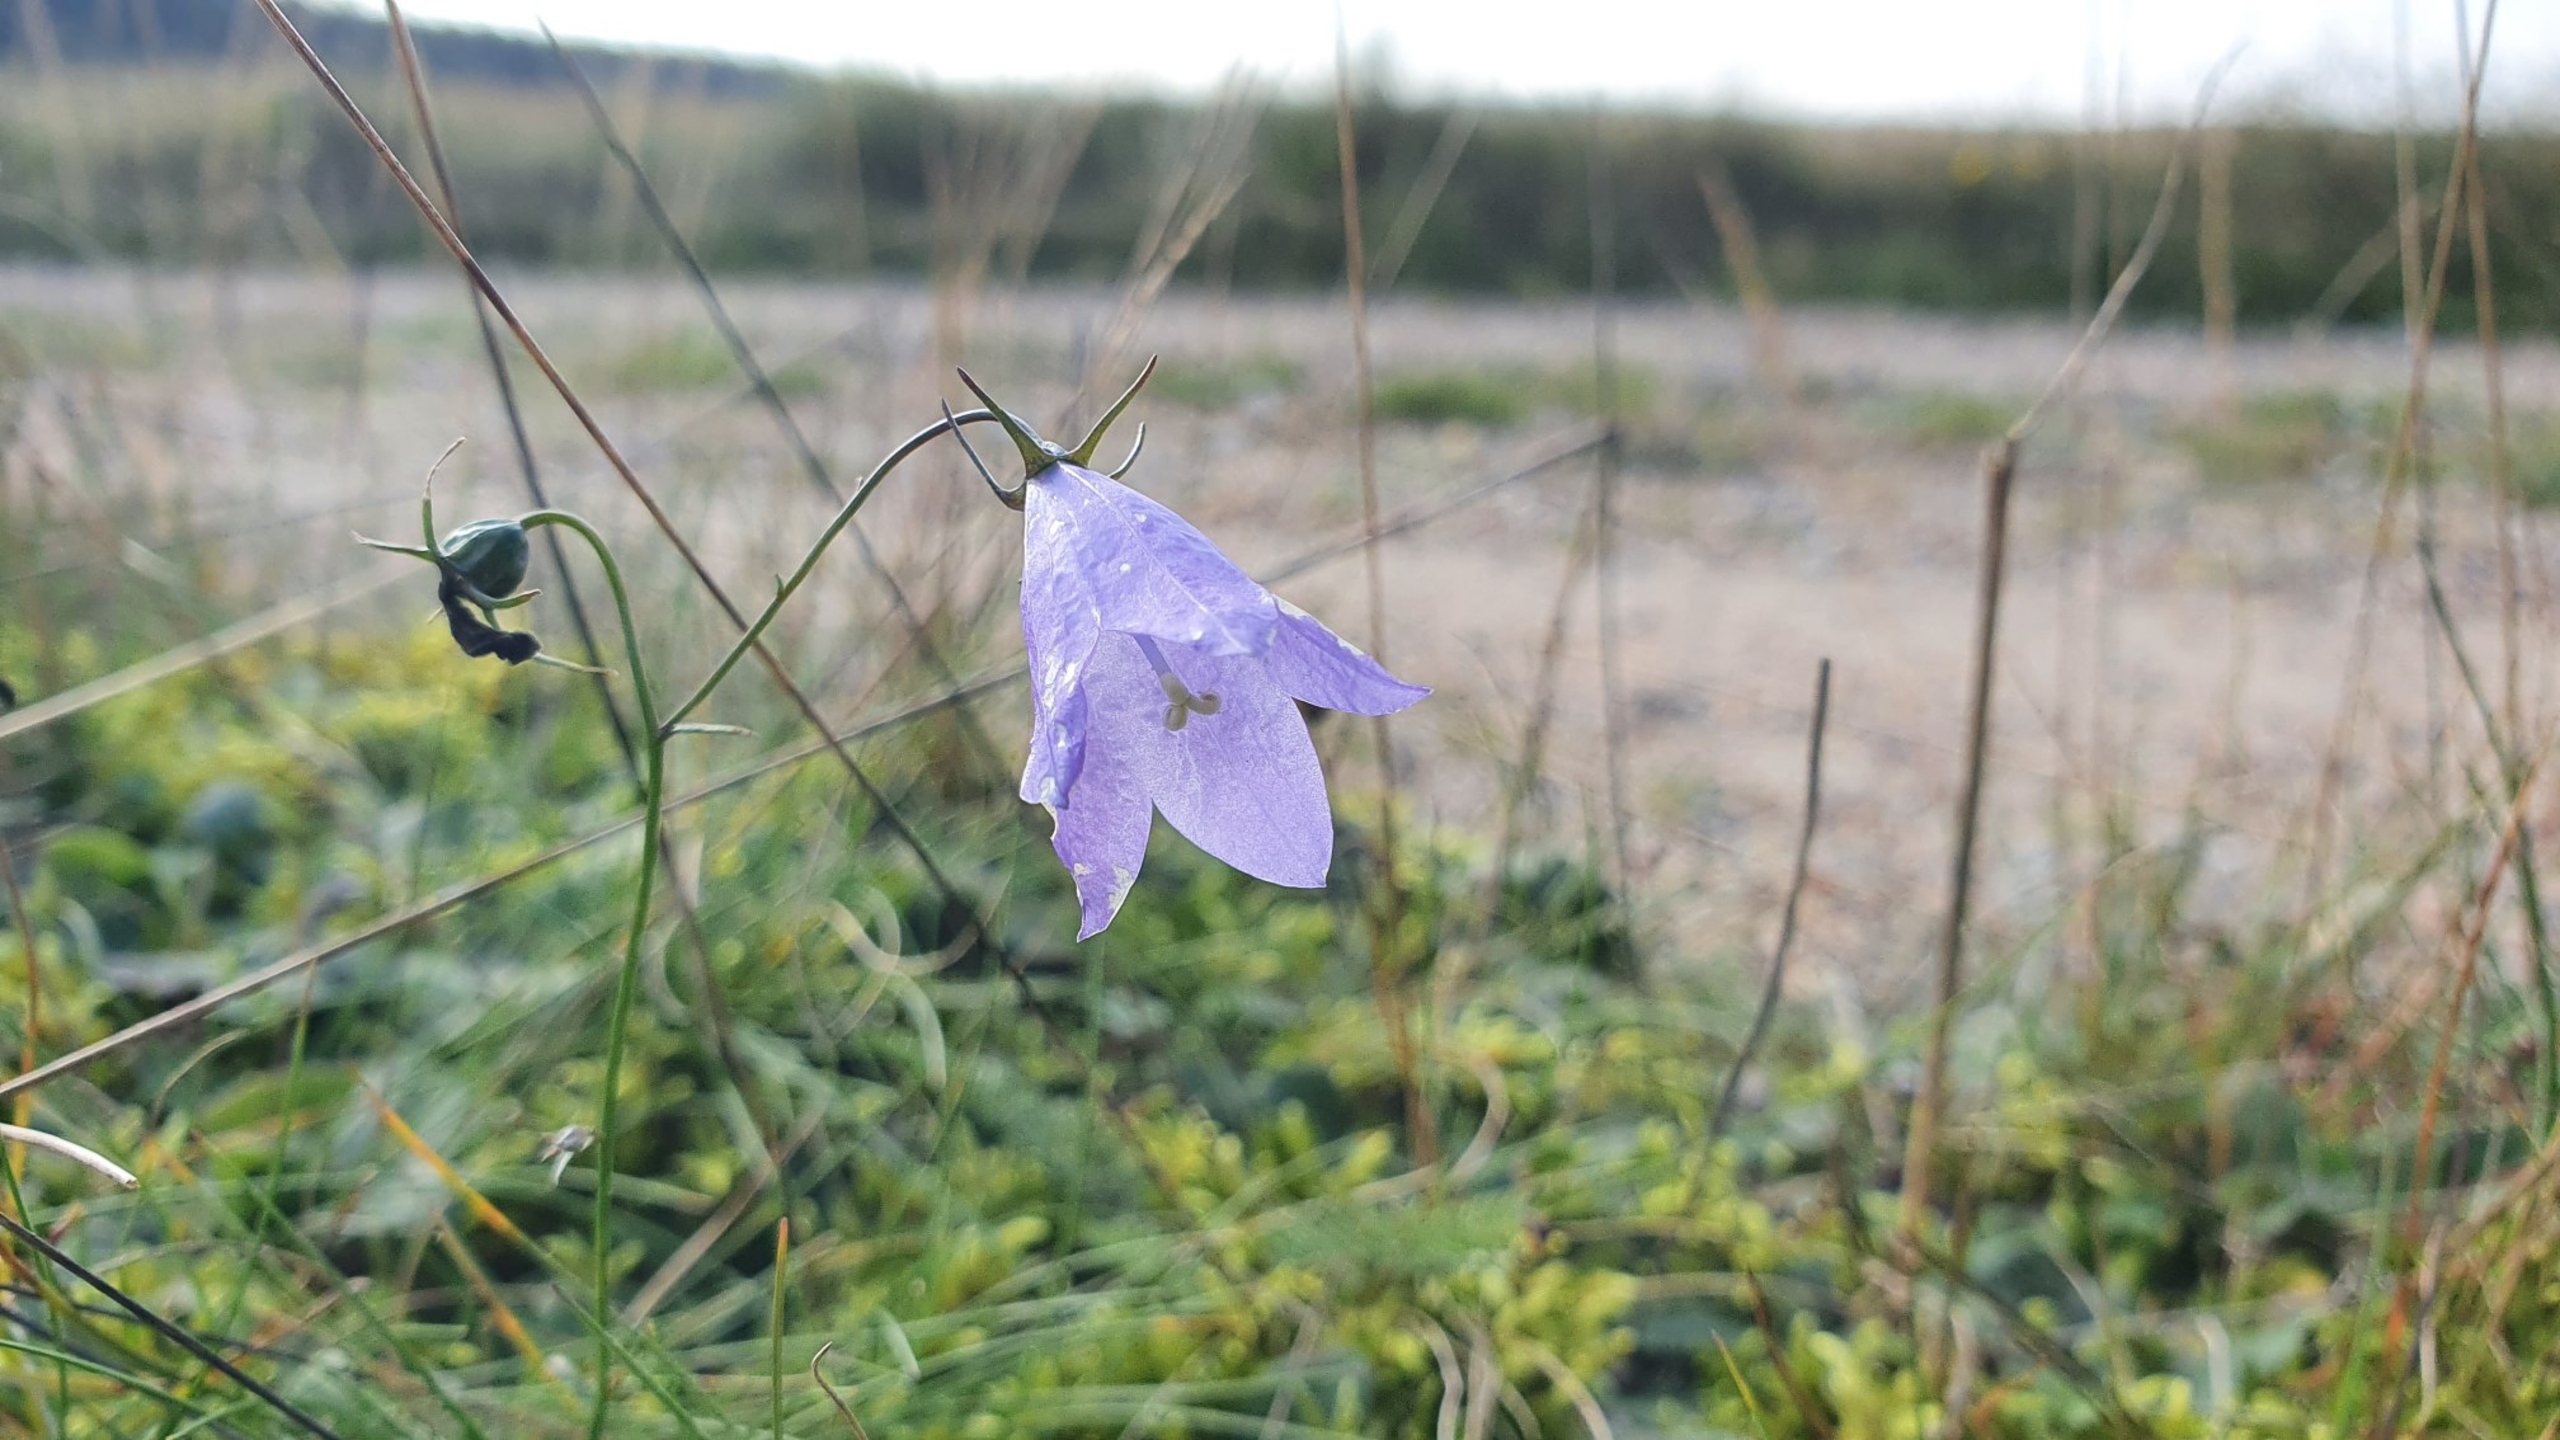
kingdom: Plantae
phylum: Tracheophyta
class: Magnoliopsida
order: Asterales
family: Campanulaceae
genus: Campanula
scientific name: Campanula rotundifolia
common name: Liden klokke
